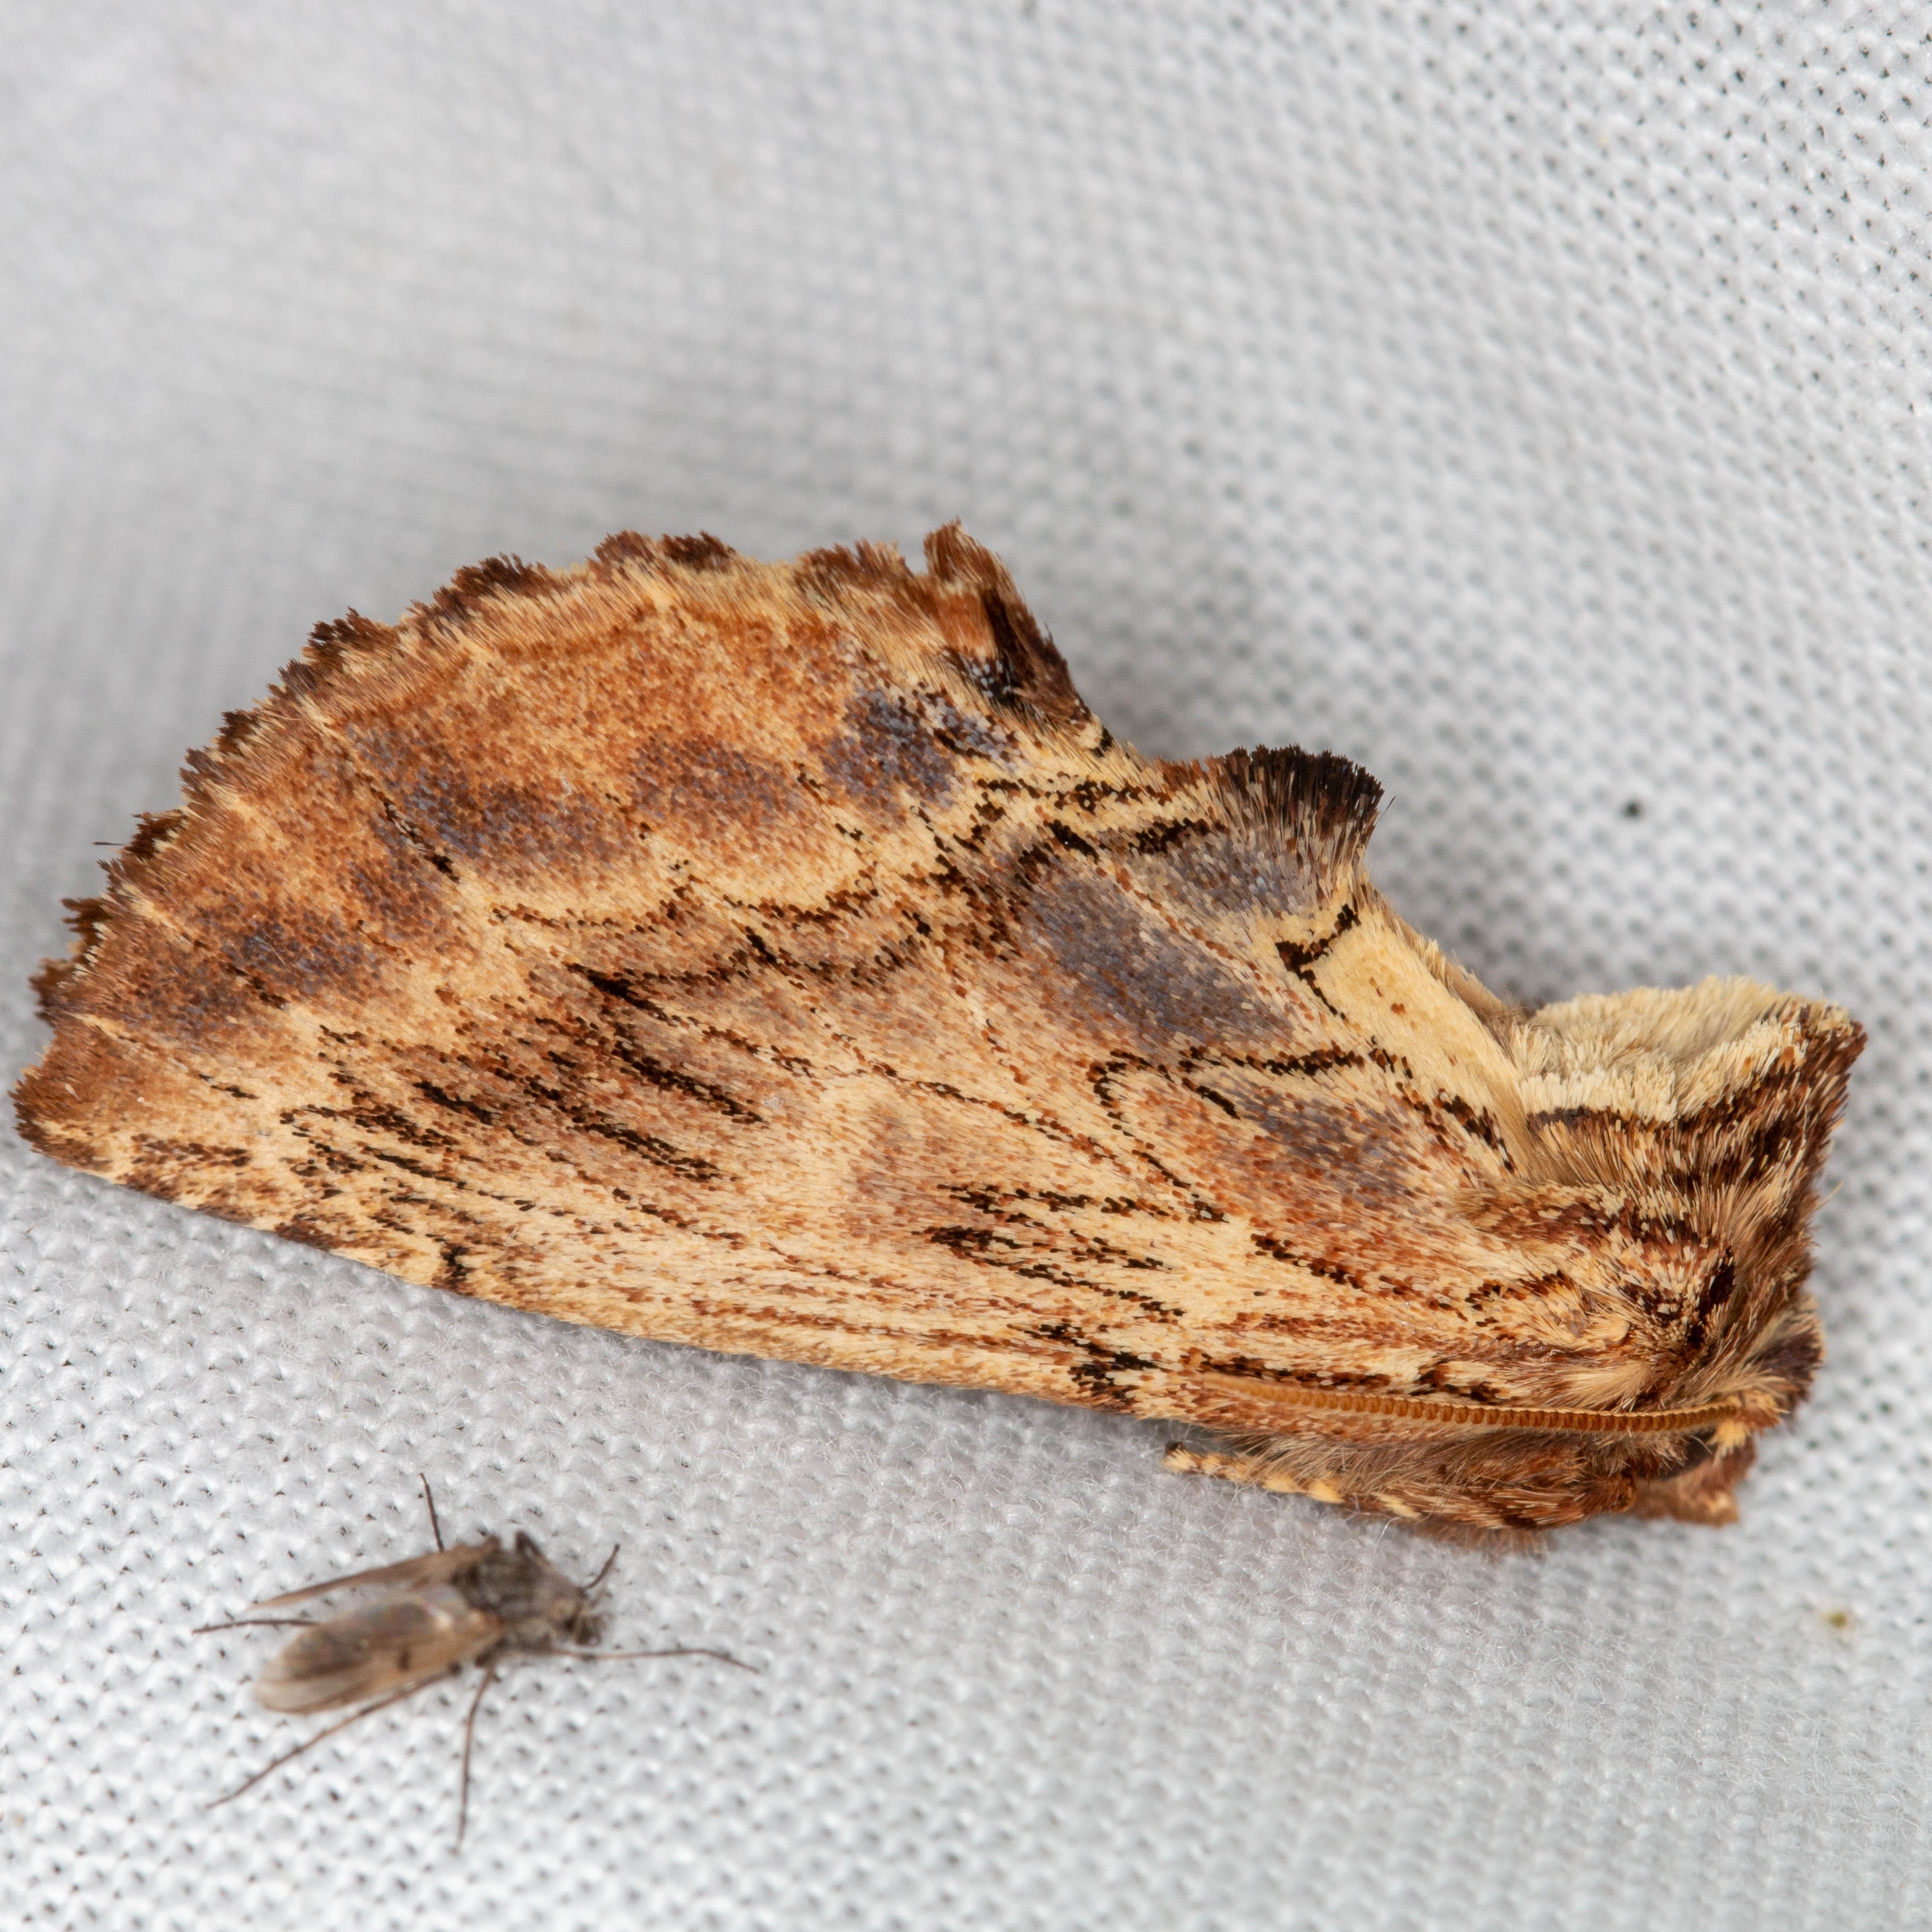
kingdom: Animalia
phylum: Arthropoda
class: Insecta
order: Lepidoptera
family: Notodontidae
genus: Ptilodon
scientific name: Ptilodon capucina
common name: Kamelspinder
